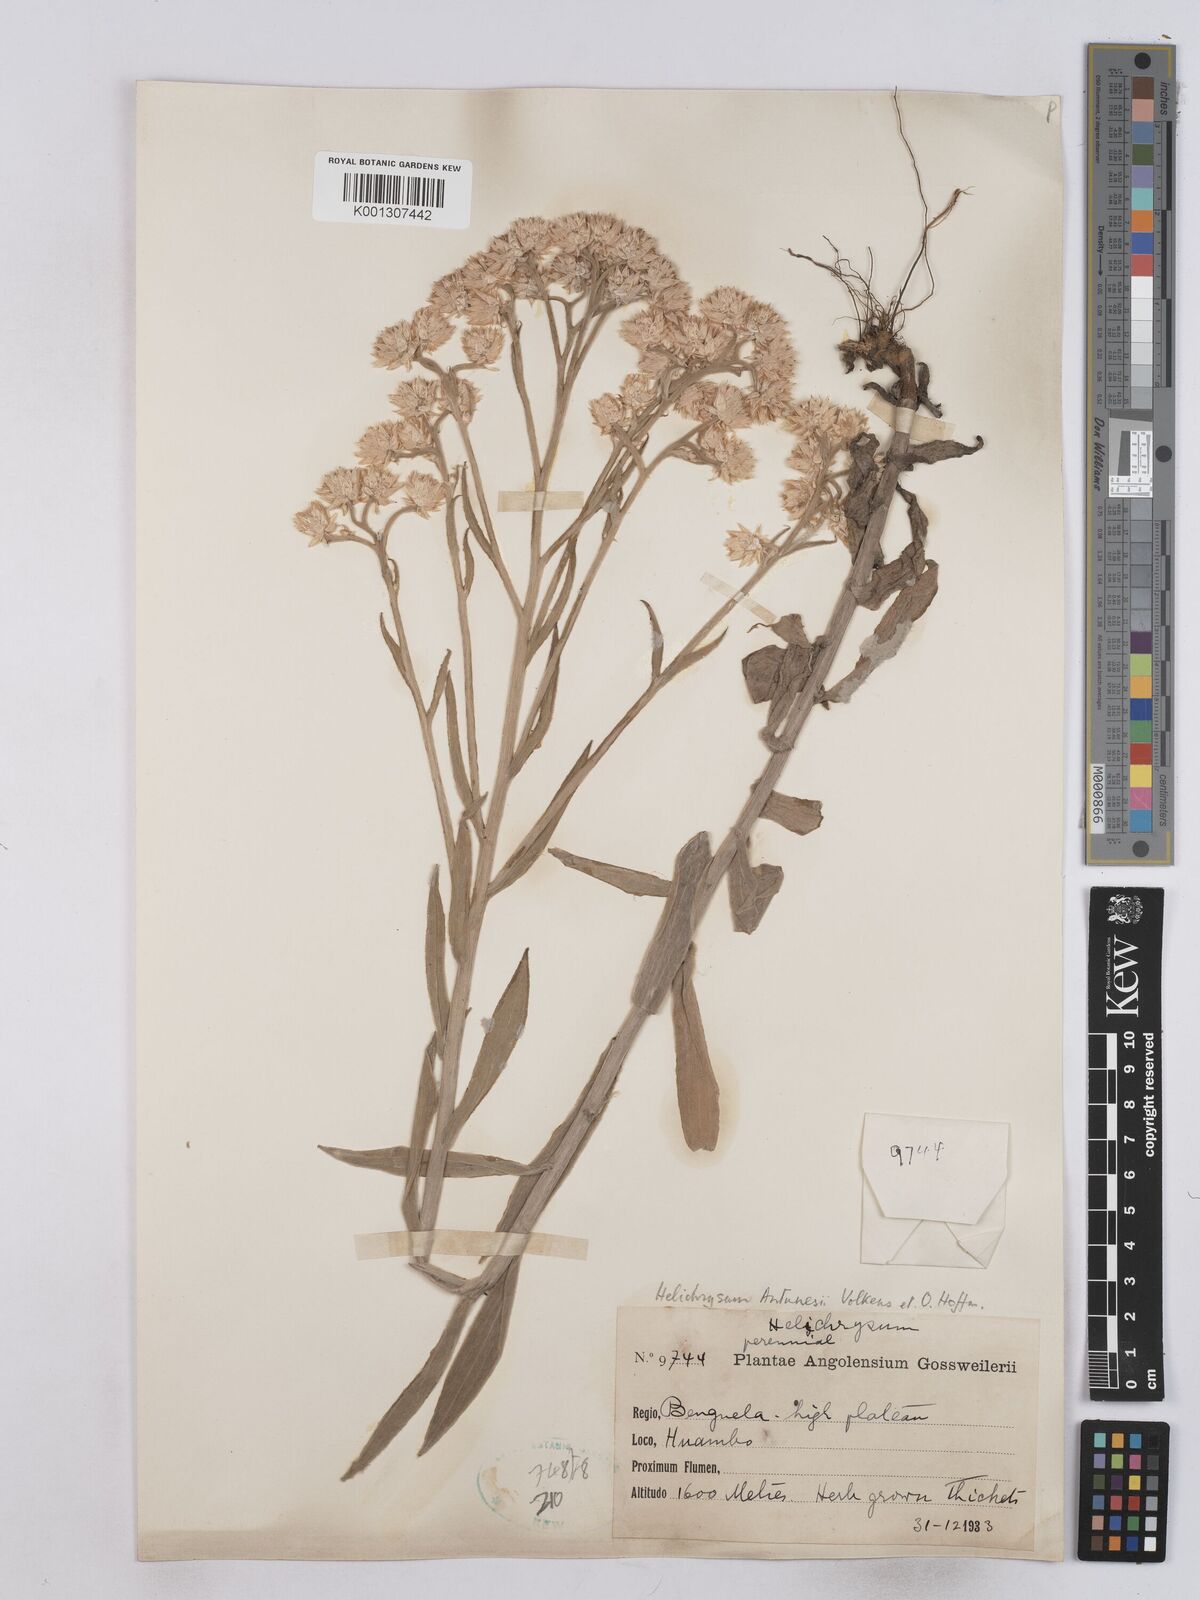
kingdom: Plantae
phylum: Tracheophyta
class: Magnoliopsida
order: Asterales
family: Asteraceae
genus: Helichrysum
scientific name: Helichrysum quartinianum
